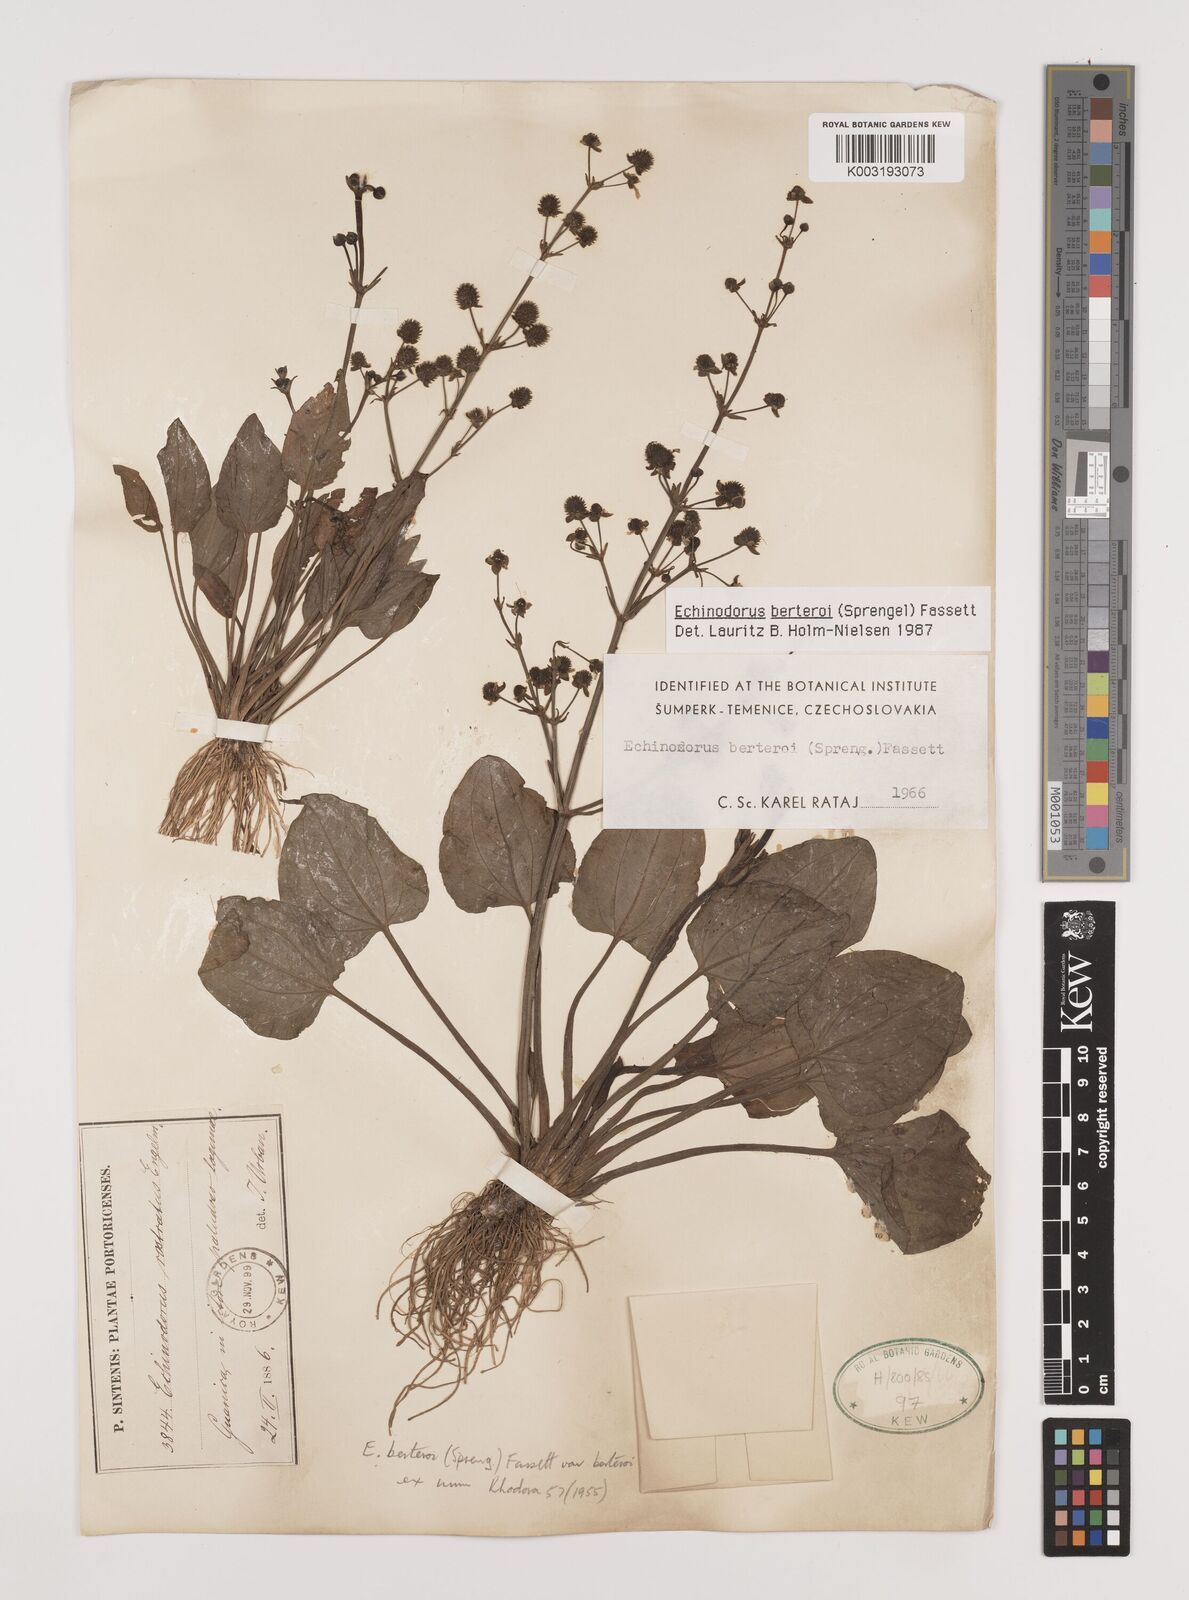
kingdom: Plantae
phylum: Tracheophyta
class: Liliopsida
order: Alismatales
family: Alismataceae
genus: Echinodorus
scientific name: Echinodorus berteroi
